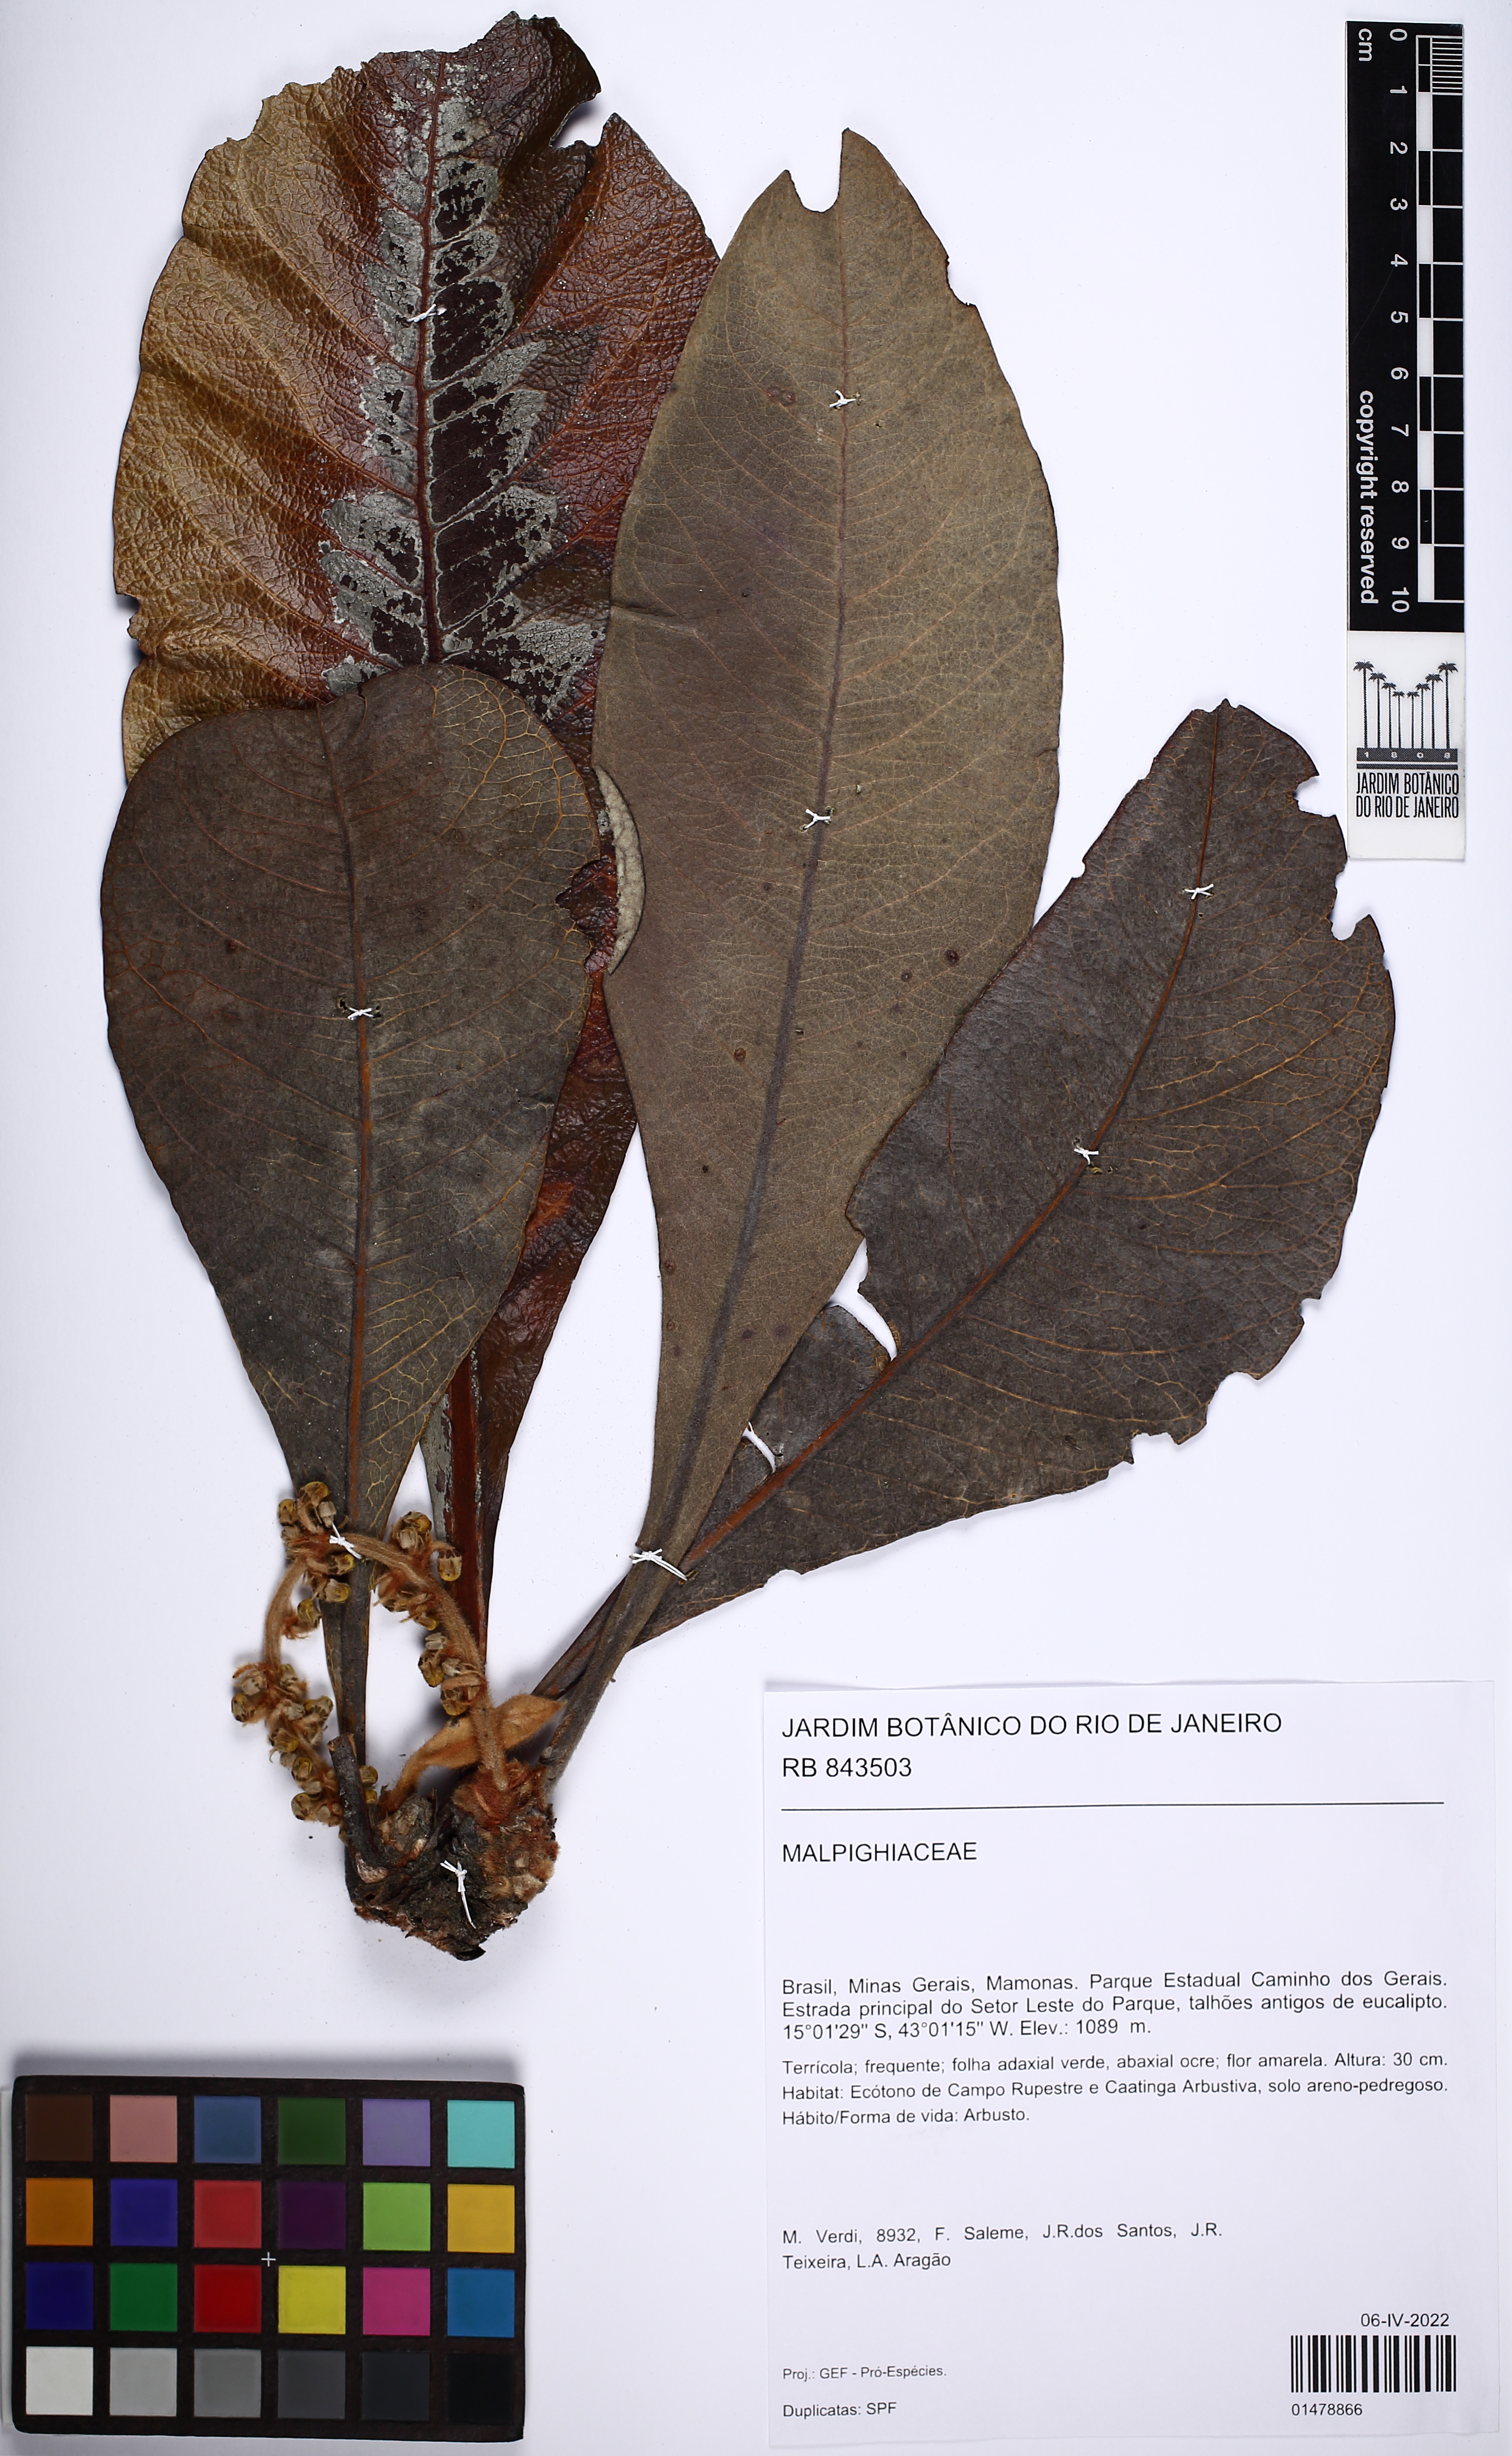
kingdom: Plantae
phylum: Tracheophyta
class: Magnoliopsida
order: Malpighiales
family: Malpighiaceae
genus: Byrsonima
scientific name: Byrsonima
